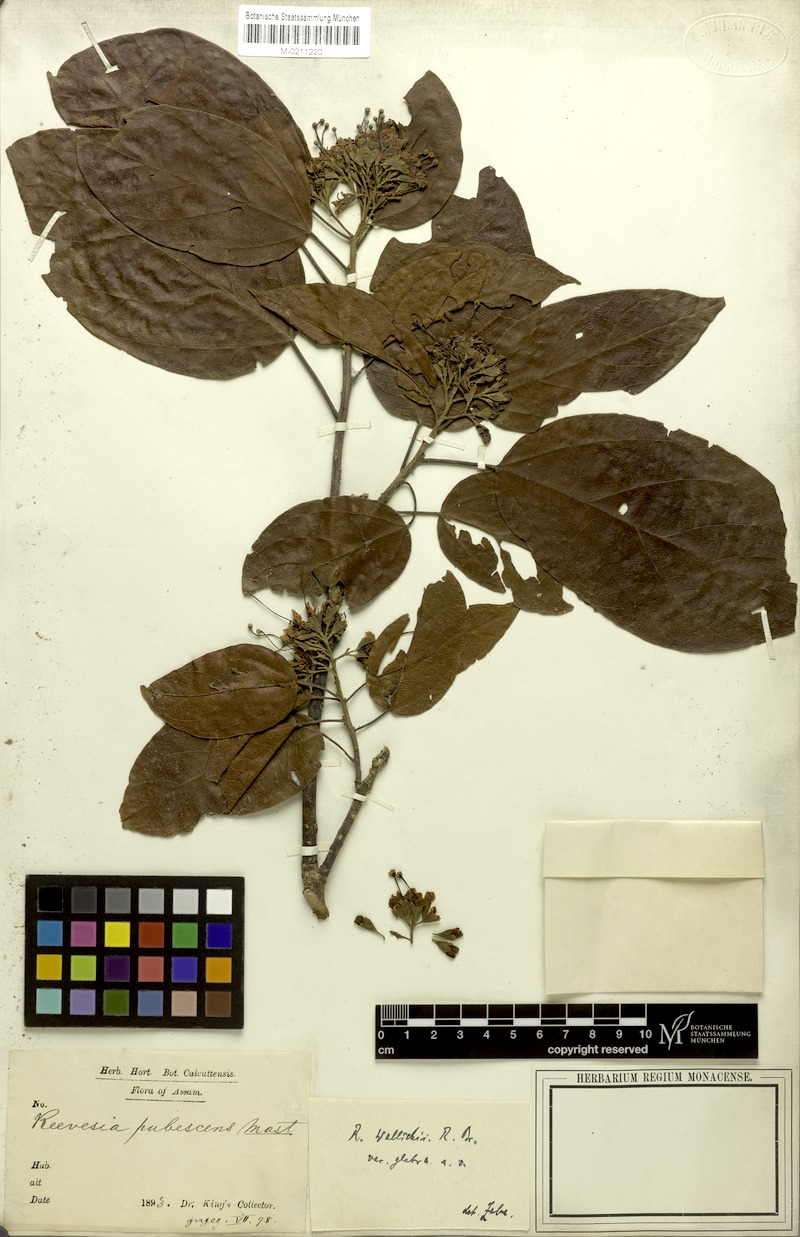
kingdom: Plantae
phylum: Tracheophyta
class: Magnoliopsida
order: Malvales
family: Malvaceae
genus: Reevesia
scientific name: Reevesia wallichii
